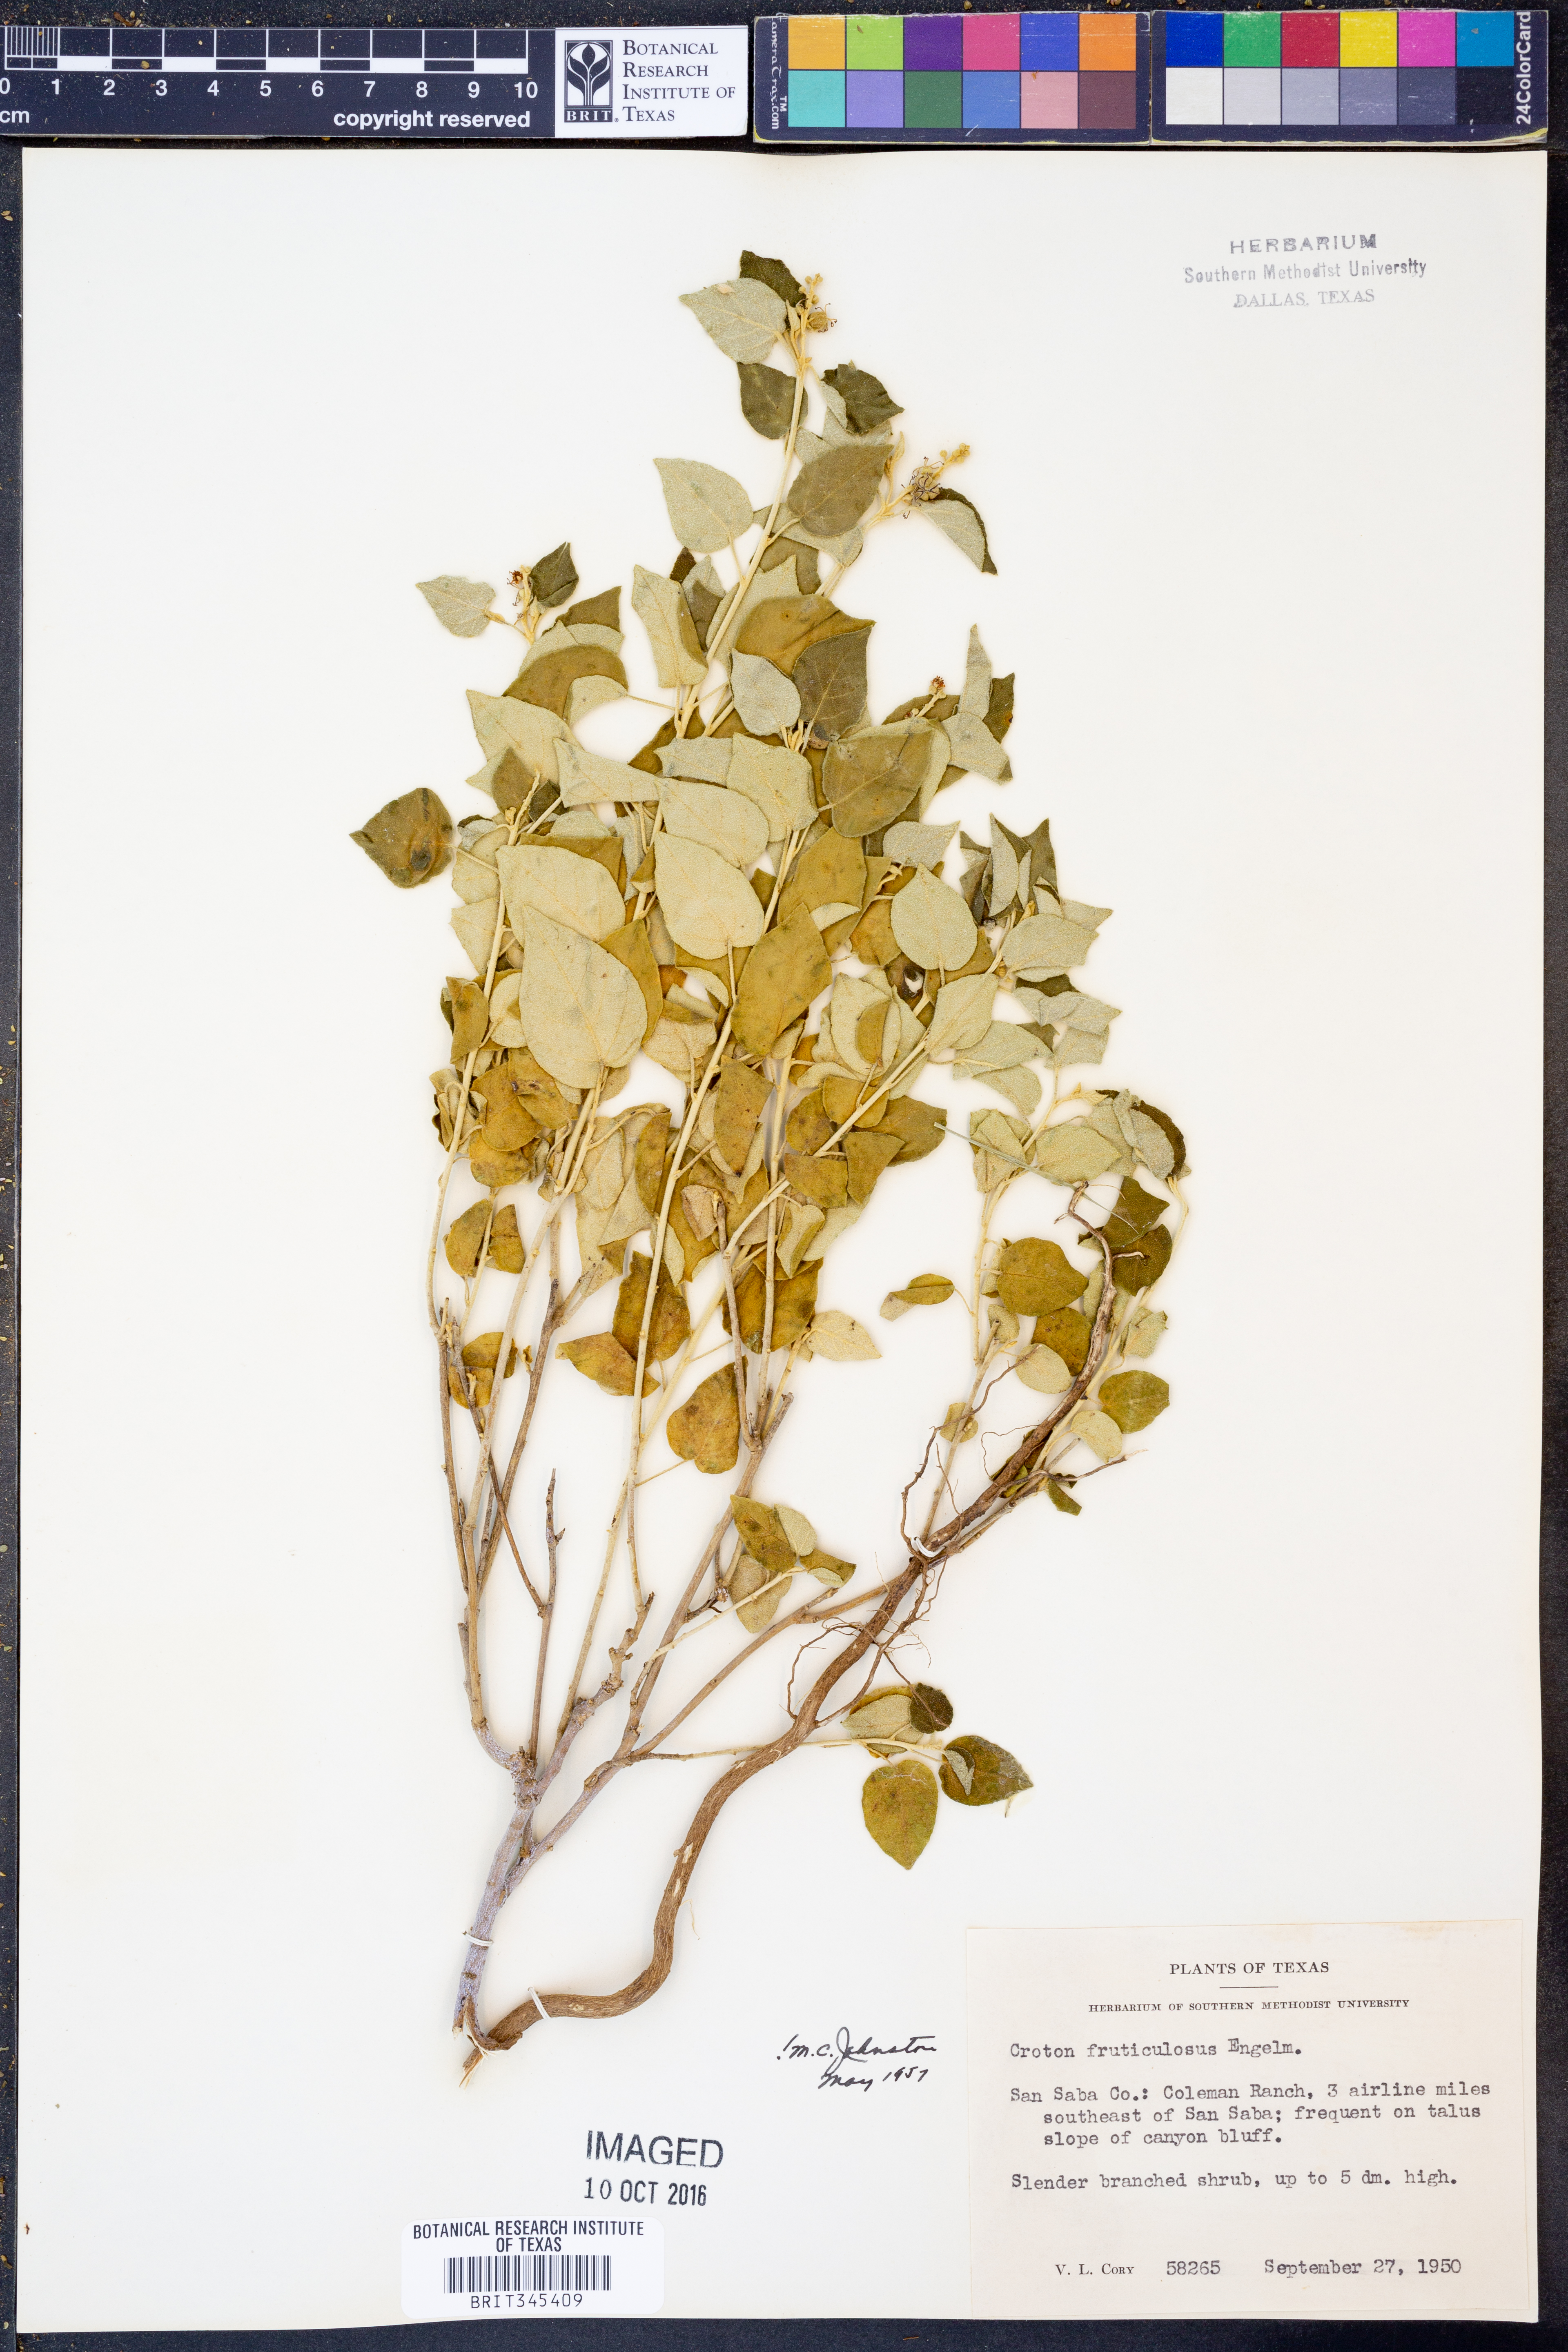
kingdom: Plantae
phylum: Tracheophyta
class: Magnoliopsida
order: Malpighiales
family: Euphorbiaceae
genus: Croton
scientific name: Croton fruticulosus
